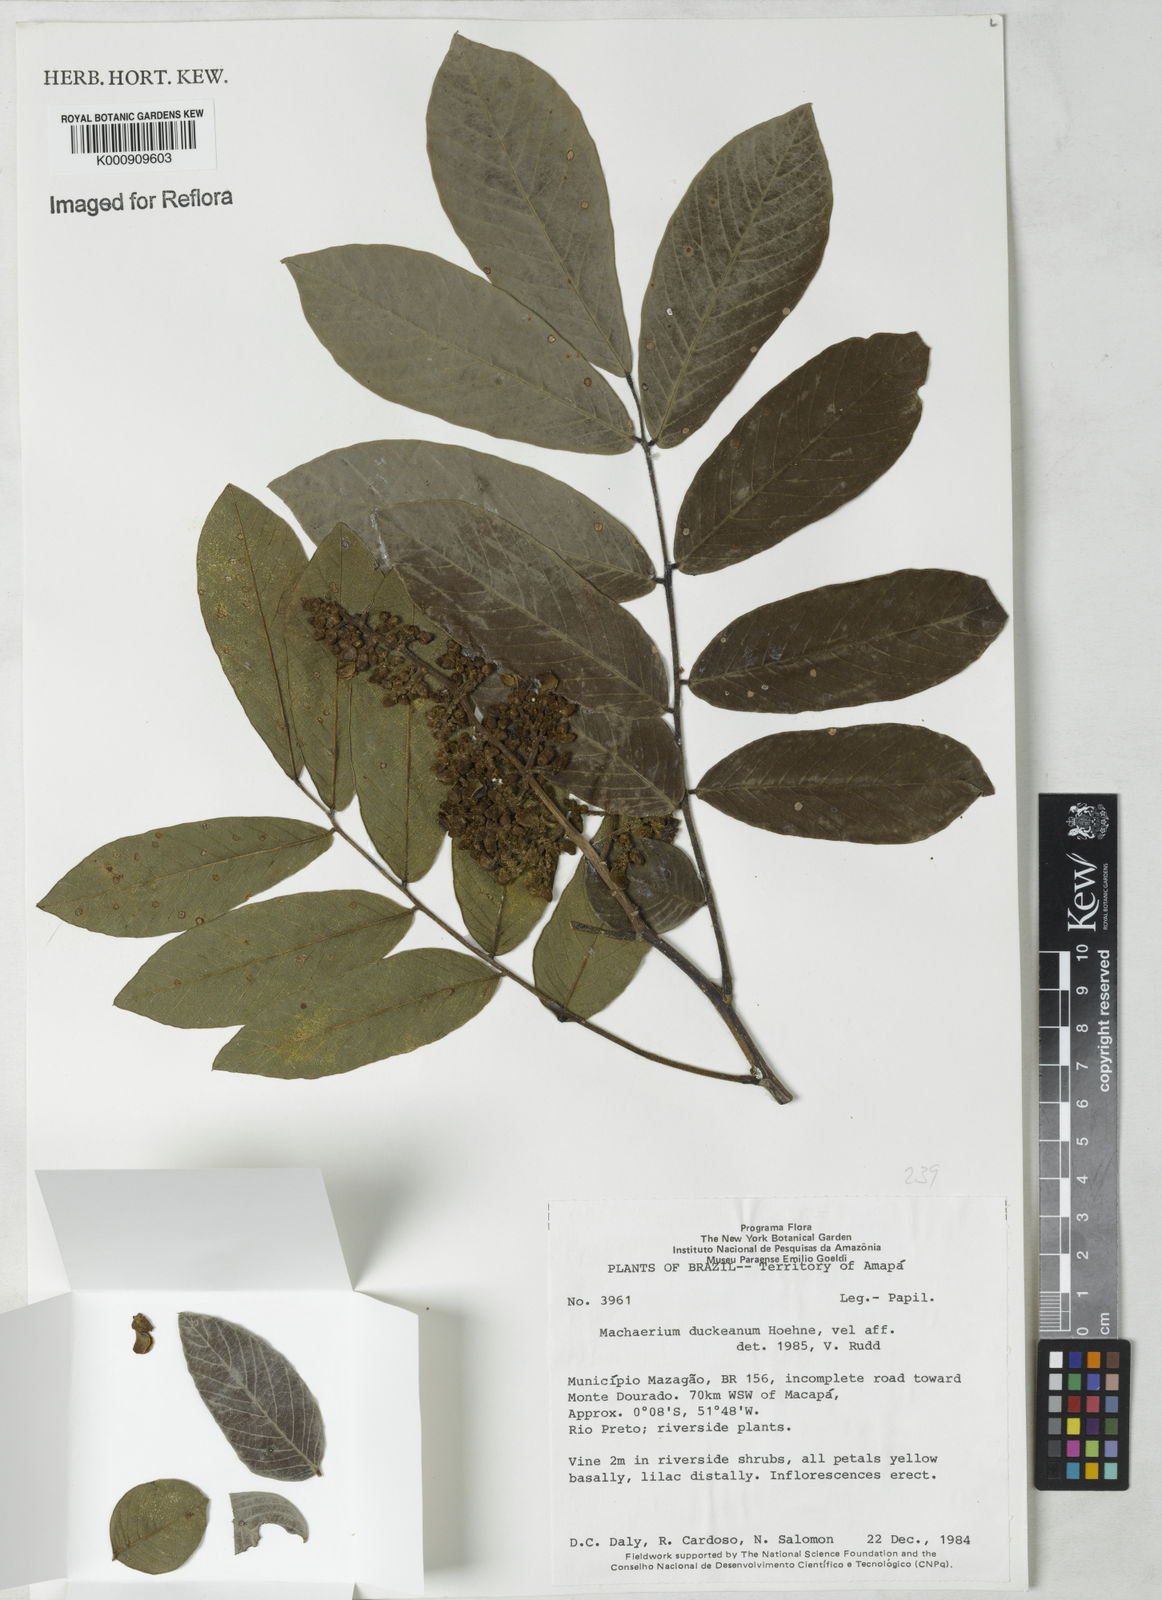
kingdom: Plantae
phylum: Tracheophyta
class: Magnoliopsida
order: Fabales
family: Fabaceae
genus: Machaerium
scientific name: Machaerium duckeanum
